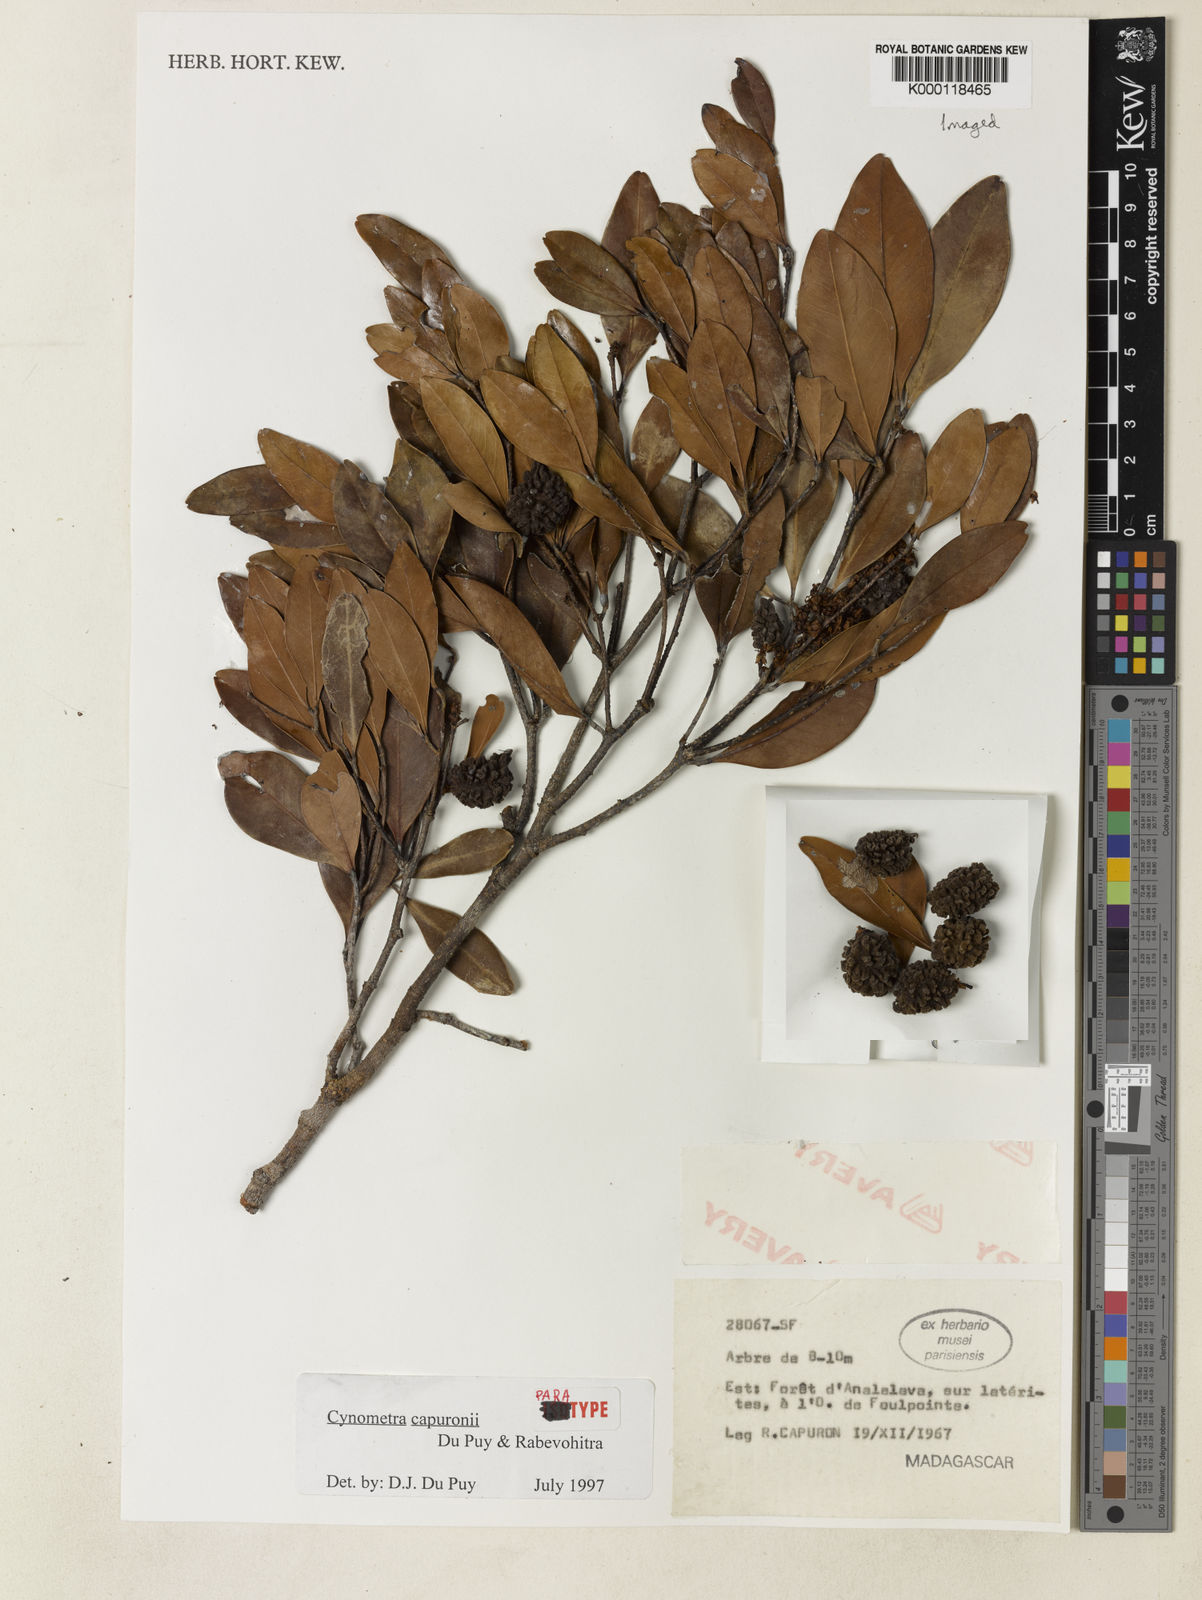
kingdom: Plantae
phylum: Tracheophyta
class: Magnoliopsida
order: Fabales
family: Fabaceae
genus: Cynometra
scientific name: Cynometra capuronii
